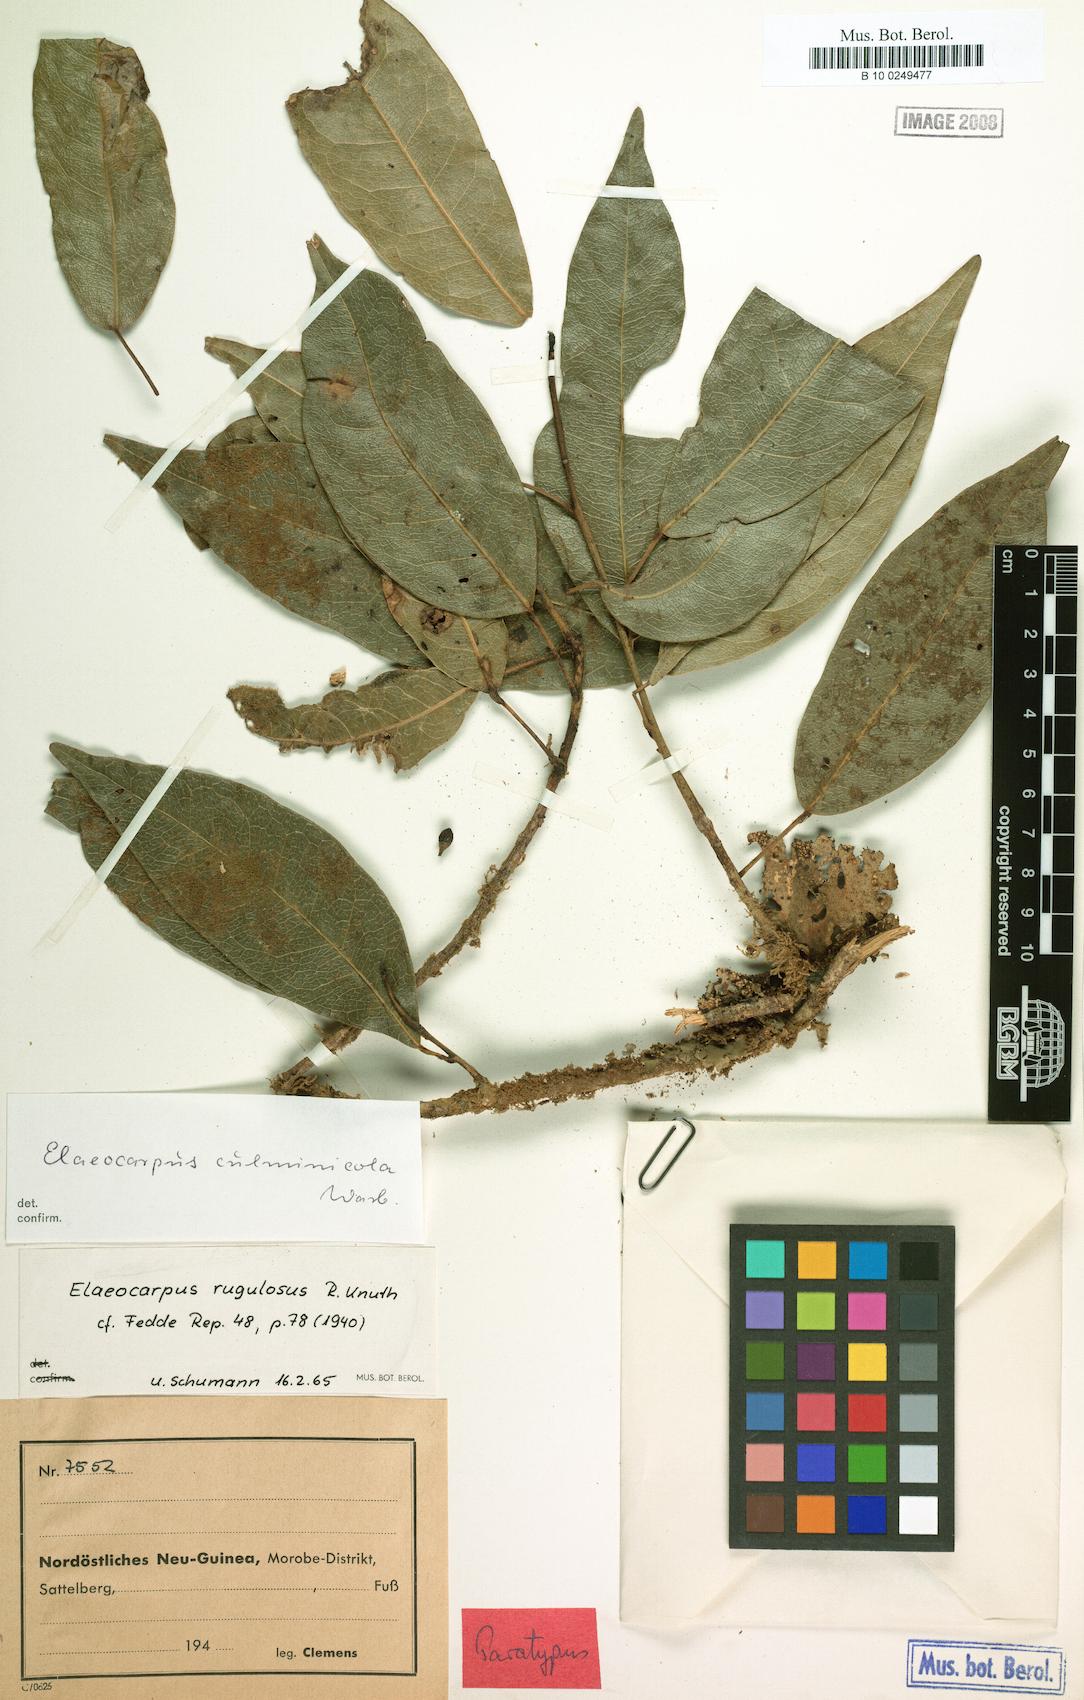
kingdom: Plantae
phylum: Tracheophyta
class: Magnoliopsida
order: Oxalidales
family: Elaeocarpaceae
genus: Elaeocarpus
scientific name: Elaeocarpus culminicola
